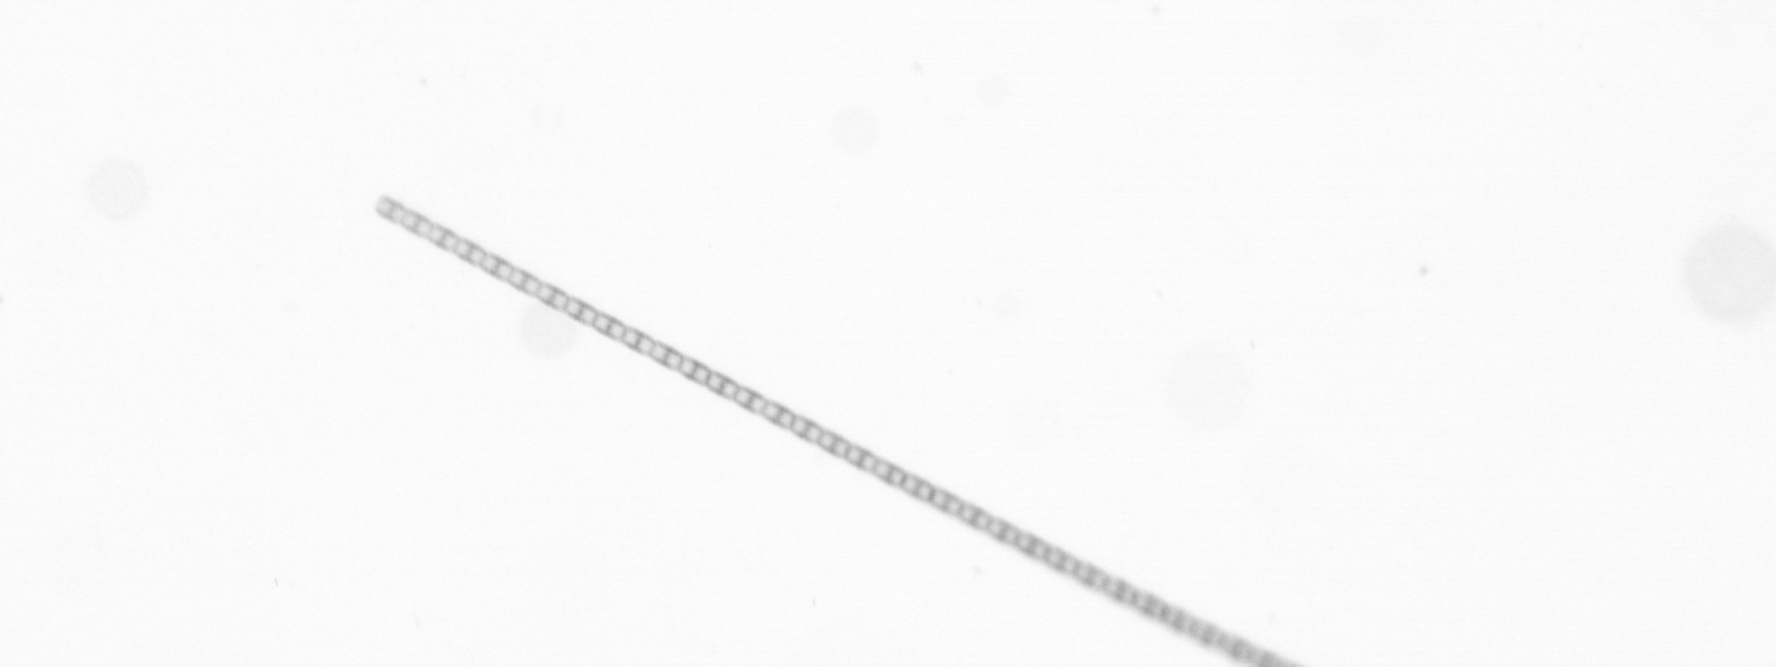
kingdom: Chromista
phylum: Ochrophyta
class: Bacillariophyceae
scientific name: Bacillariophyceae
